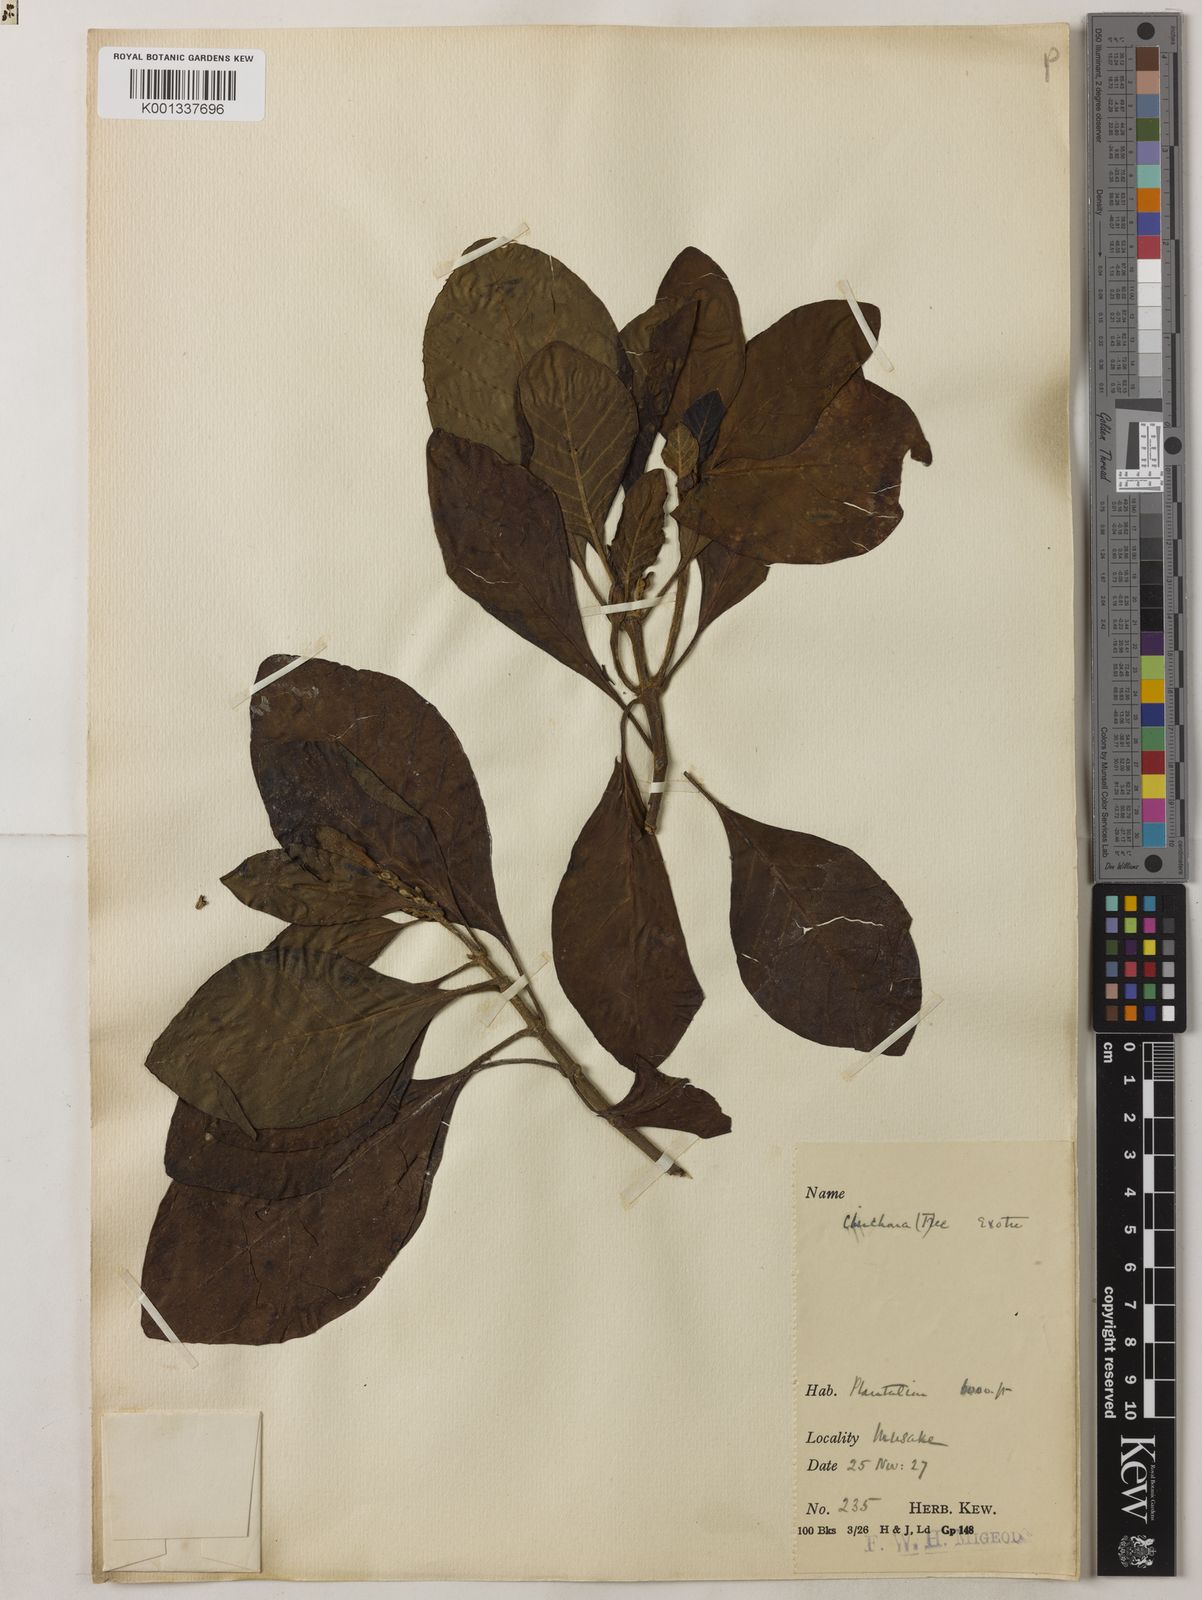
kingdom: Plantae
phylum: Tracheophyta
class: Magnoliopsida
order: Gentianales
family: Rubiaceae
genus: Cinchona
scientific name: Cinchona calisaya
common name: Ledgerbark
